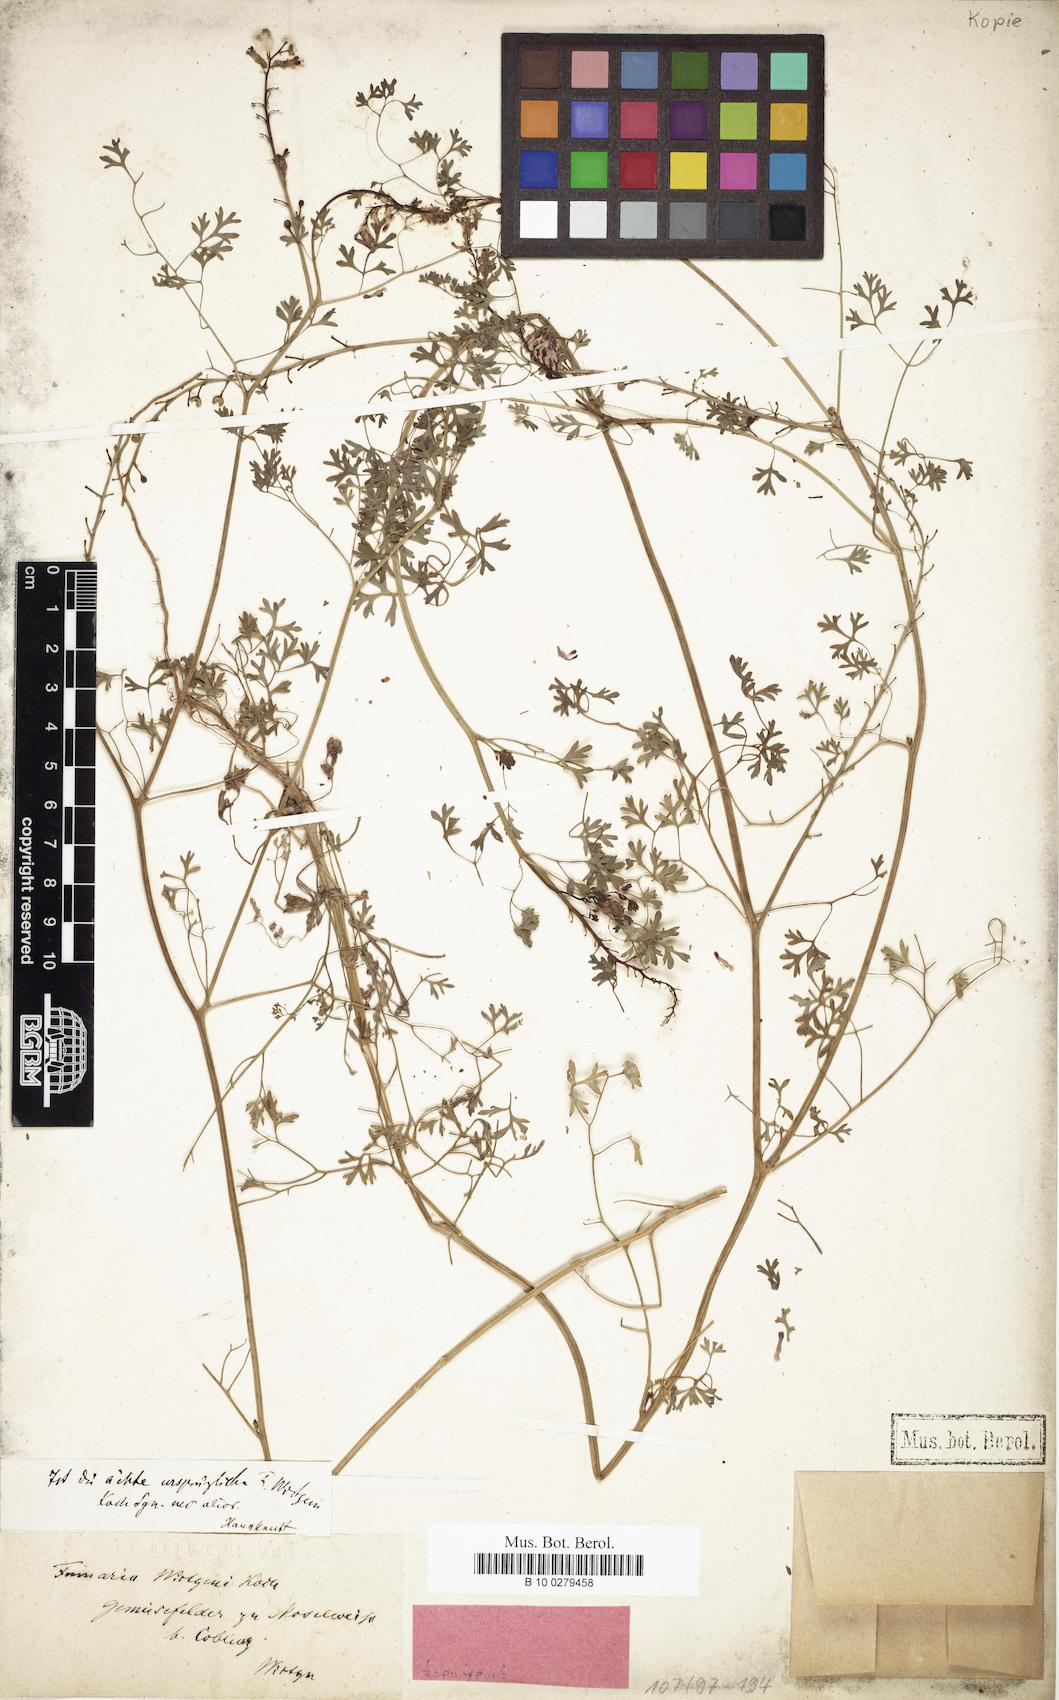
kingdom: Plantae
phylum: Tracheophyta
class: Magnoliopsida
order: Ranunculales
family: Papaveraceae
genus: Fumaria
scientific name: Fumaria wirtgenii
